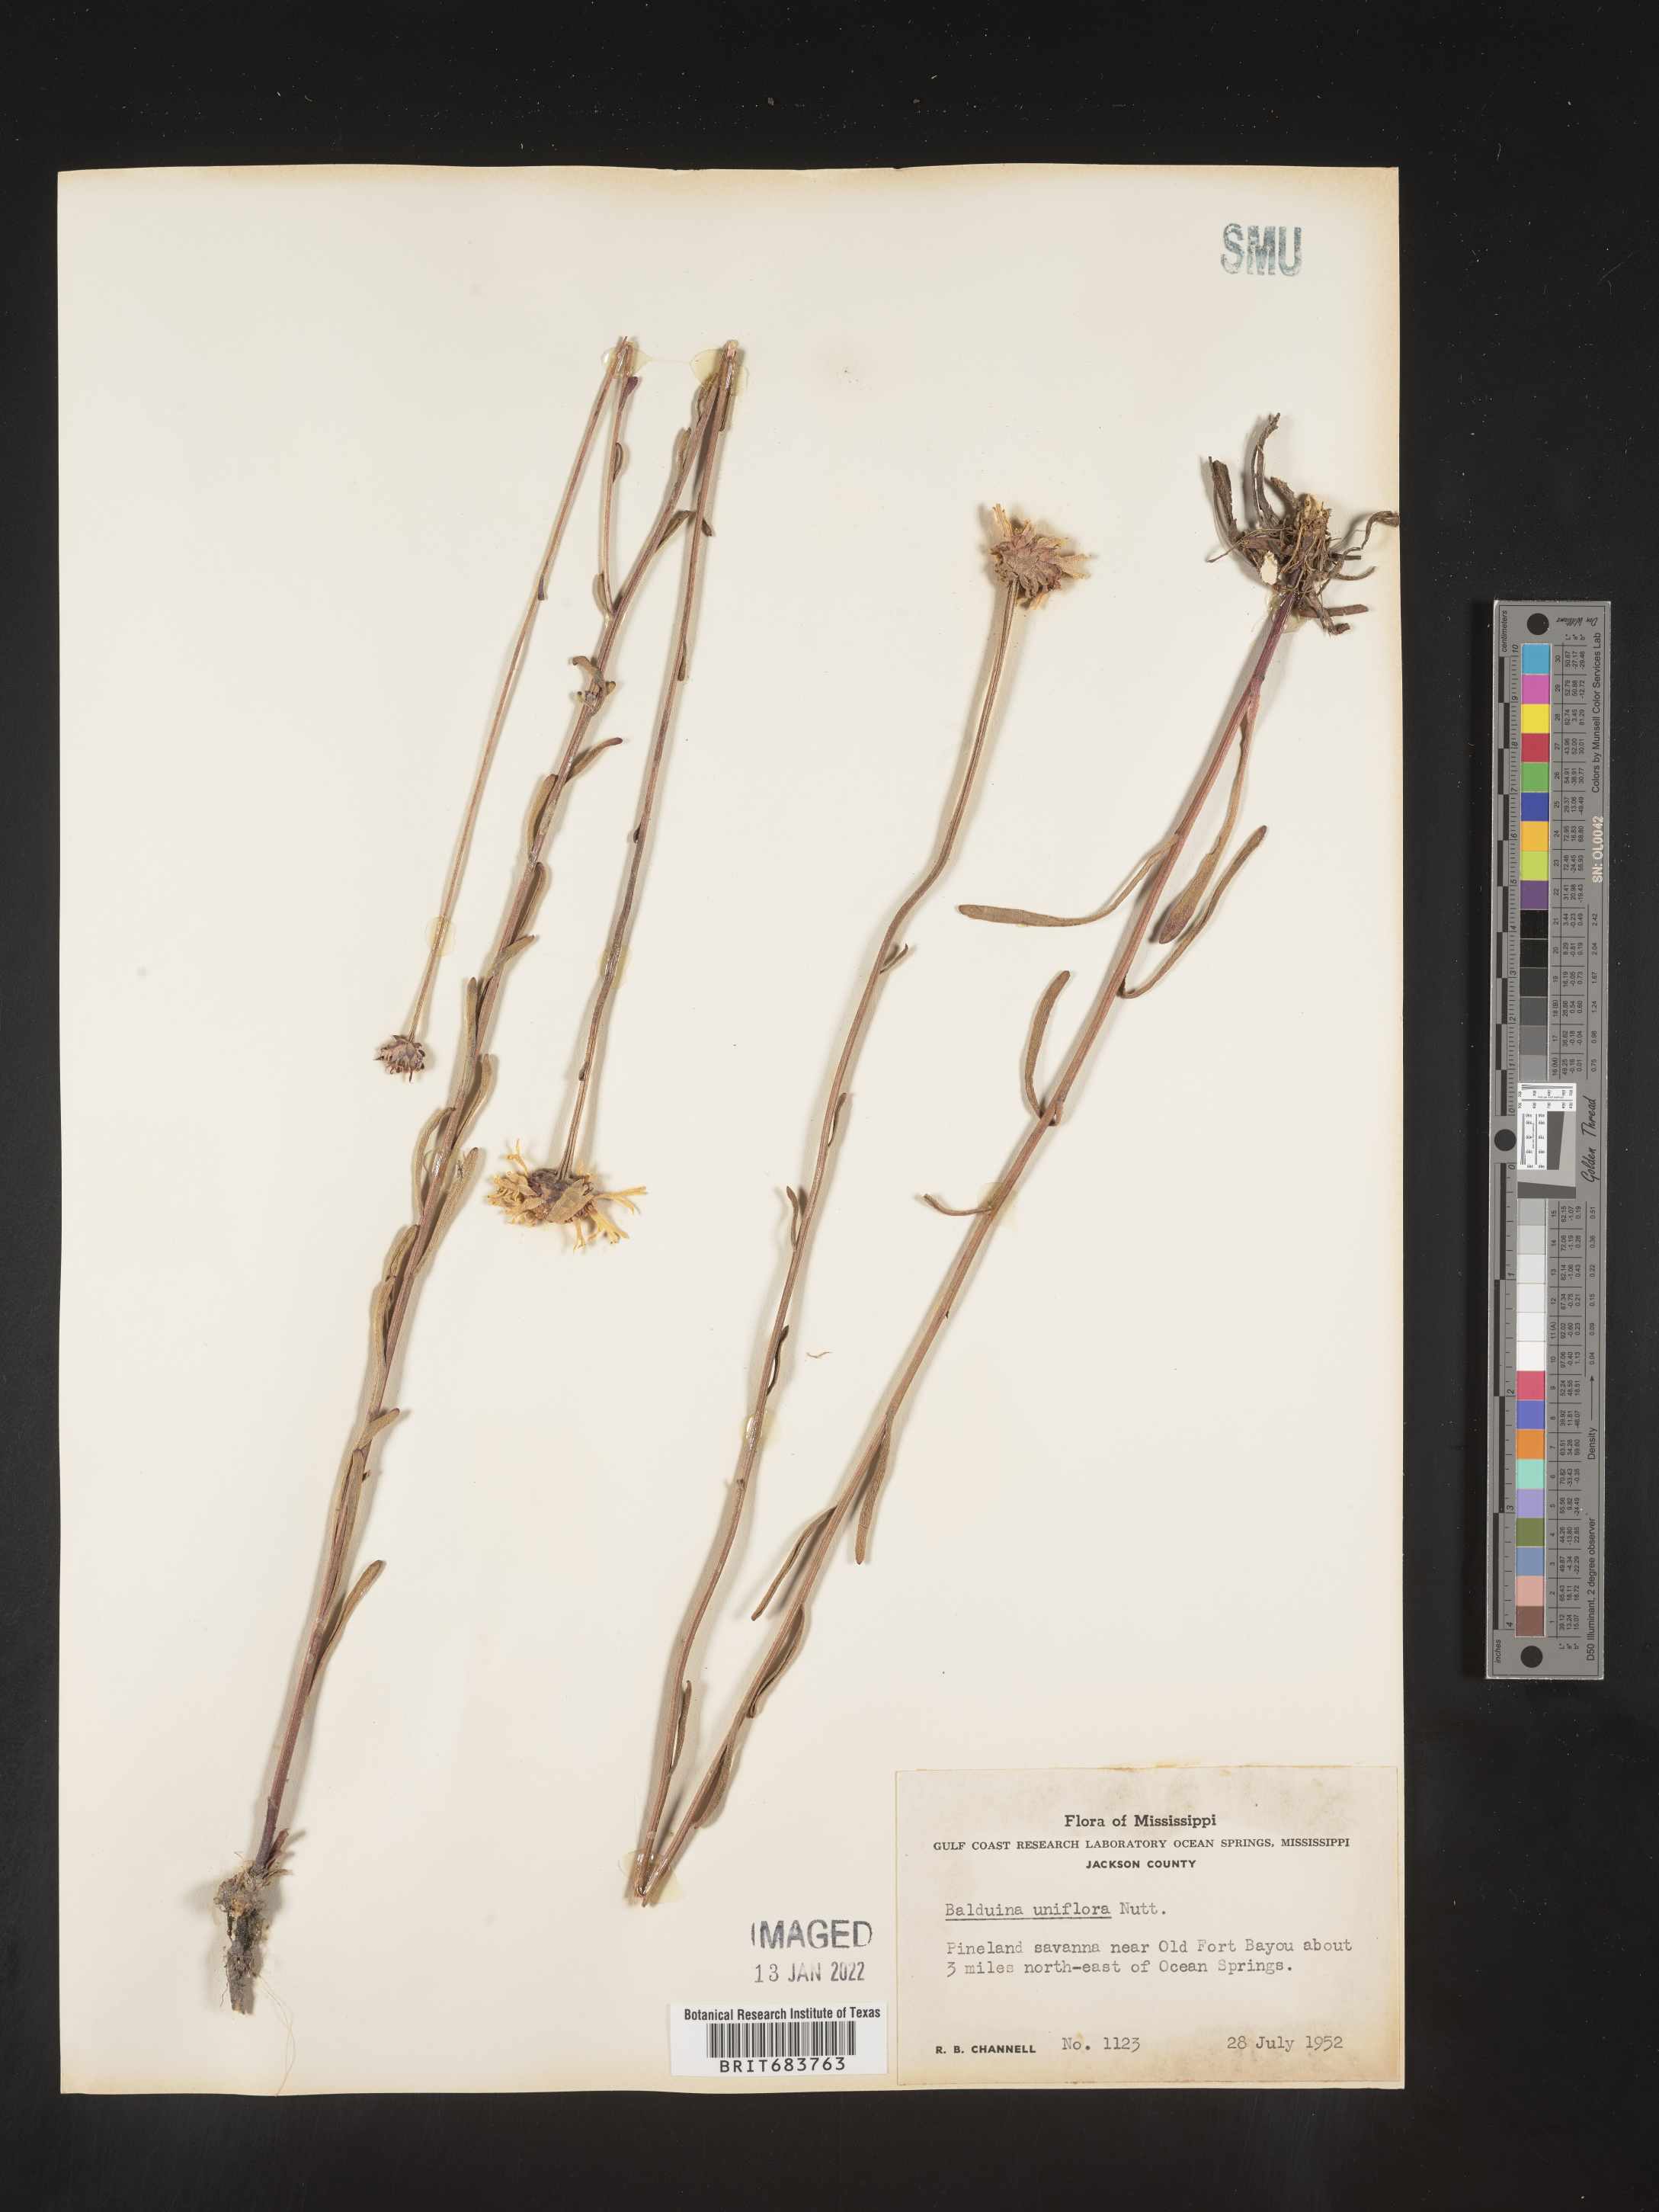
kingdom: Plantae
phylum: Tracheophyta
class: Magnoliopsida
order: Asterales
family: Asteraceae
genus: Balduina
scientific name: Balduina uniflora
